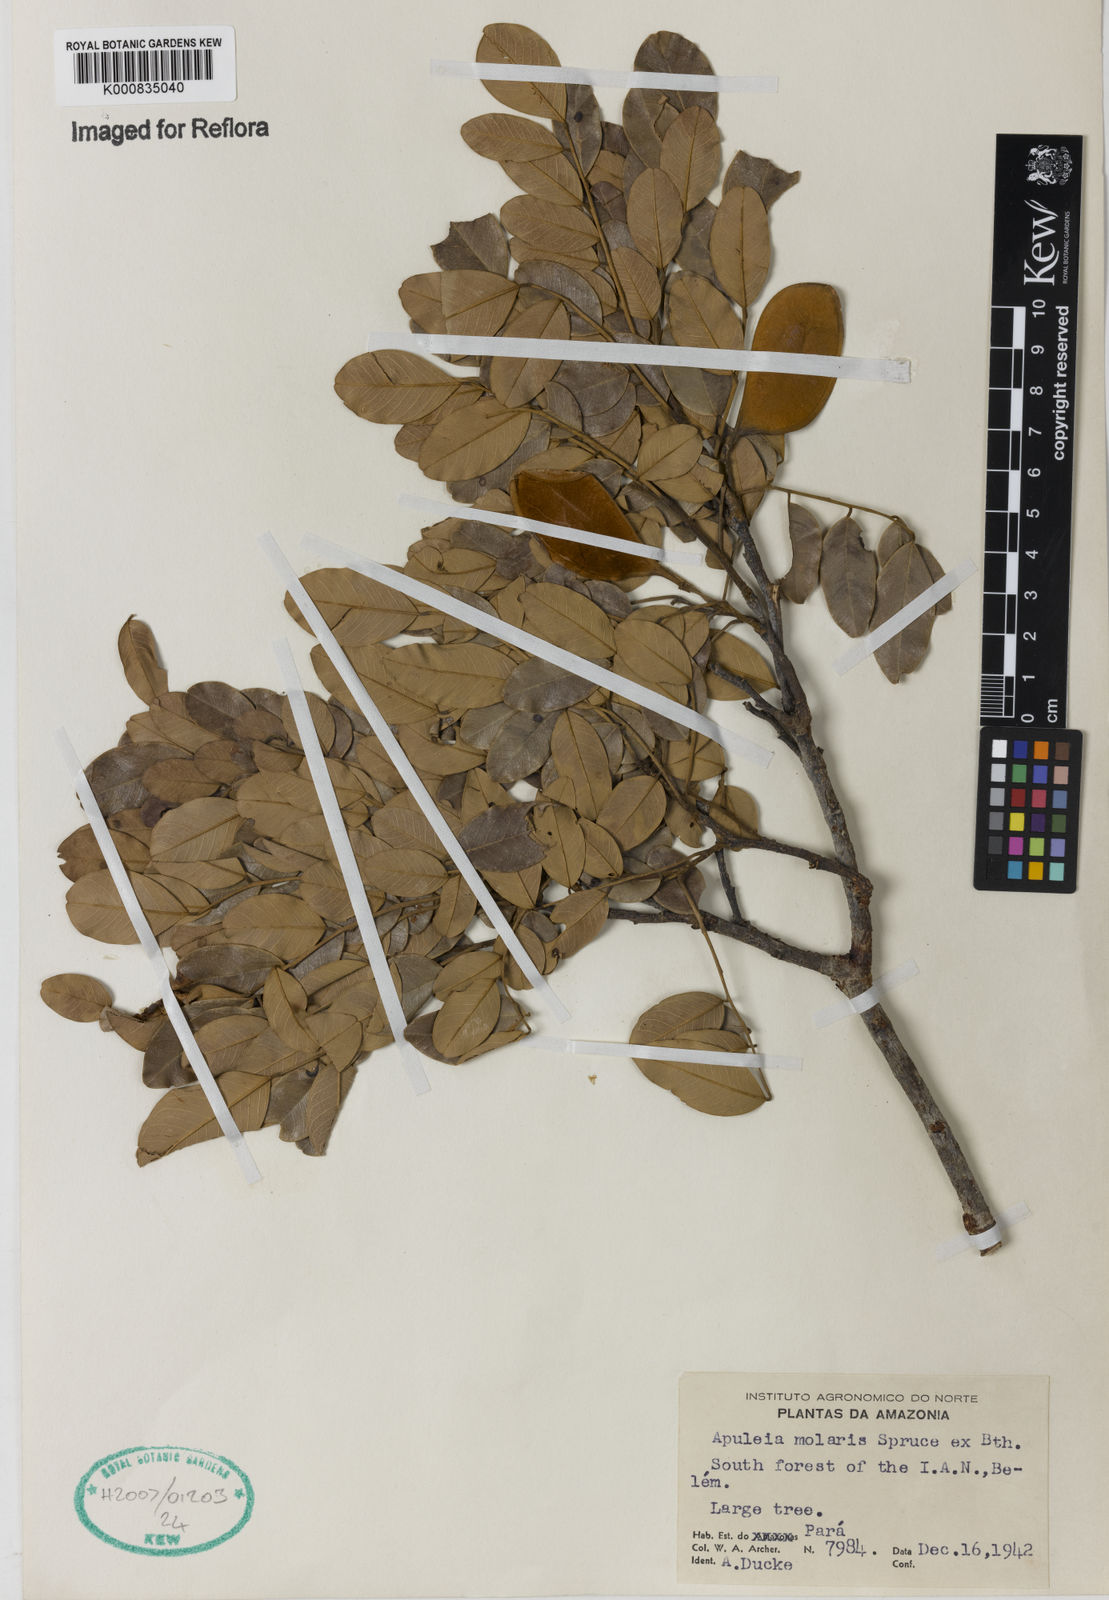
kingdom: Plantae
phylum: Tracheophyta
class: Magnoliopsida
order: Fabales
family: Fabaceae
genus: Apuleia
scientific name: Apuleia leiocarpa
